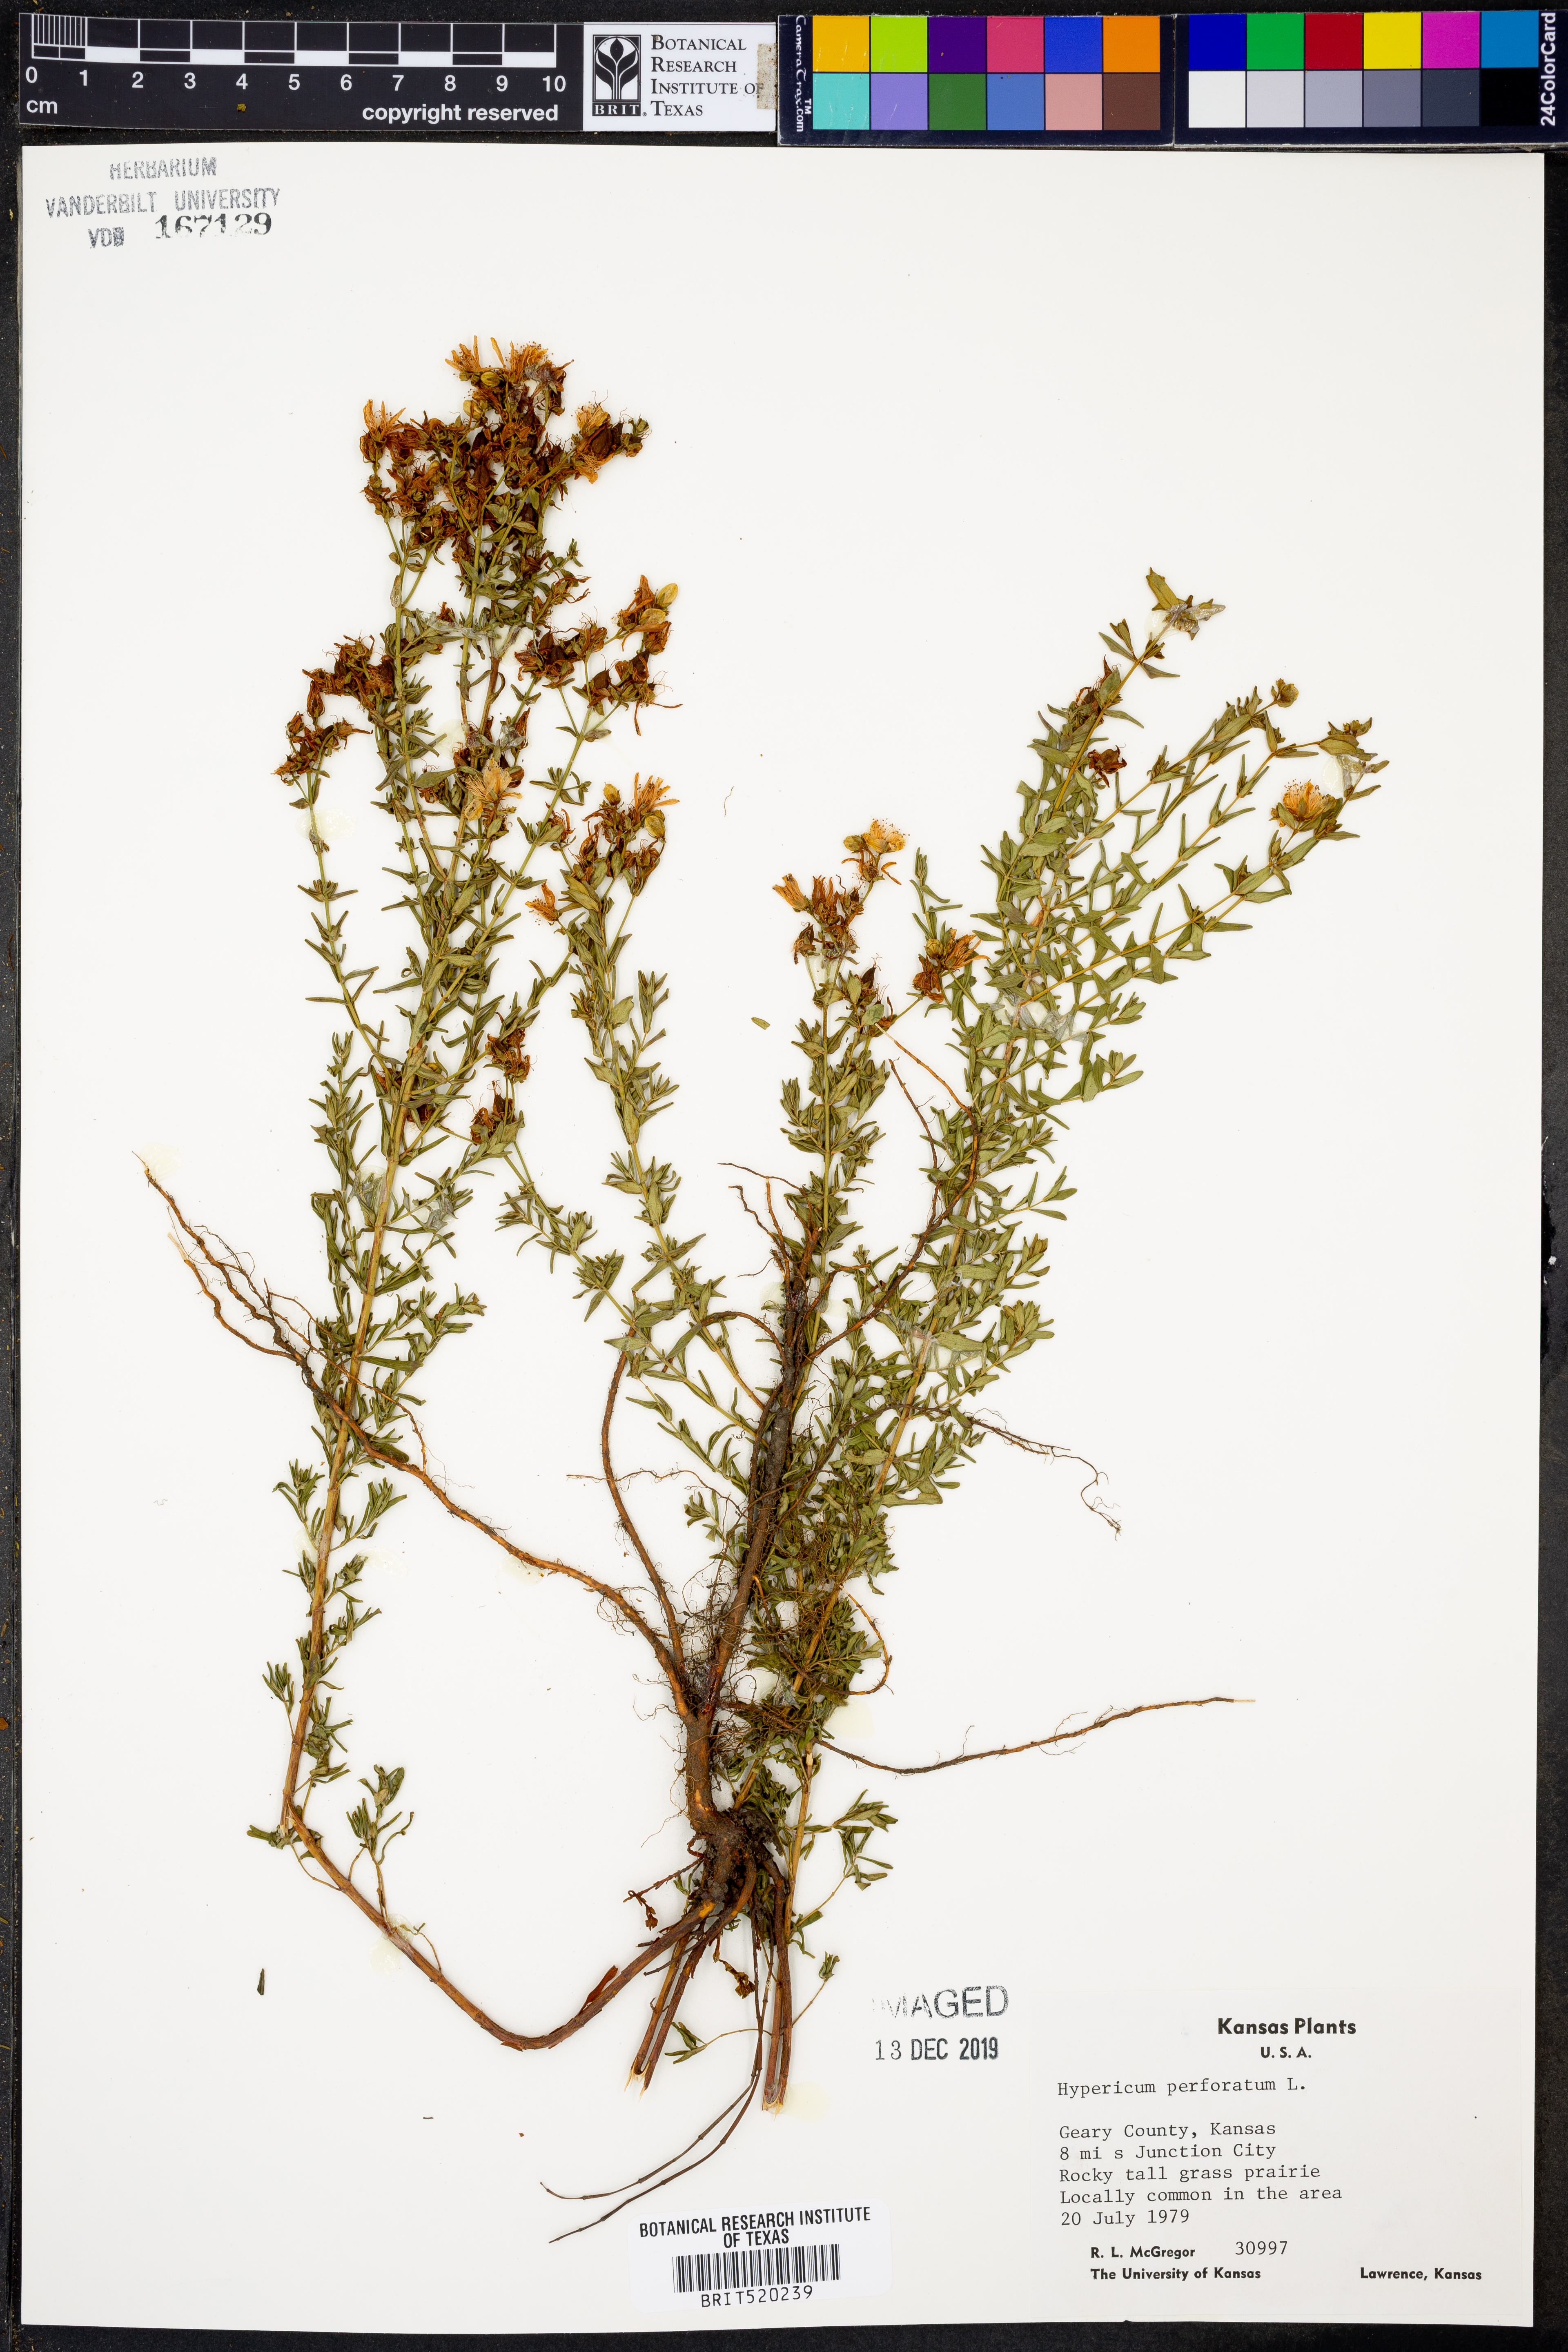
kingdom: Plantae
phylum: Tracheophyta
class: Magnoliopsida
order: Malpighiales
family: Hypericaceae
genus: Hypericum
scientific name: Hypericum perforatum
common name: Common st. johnswort
